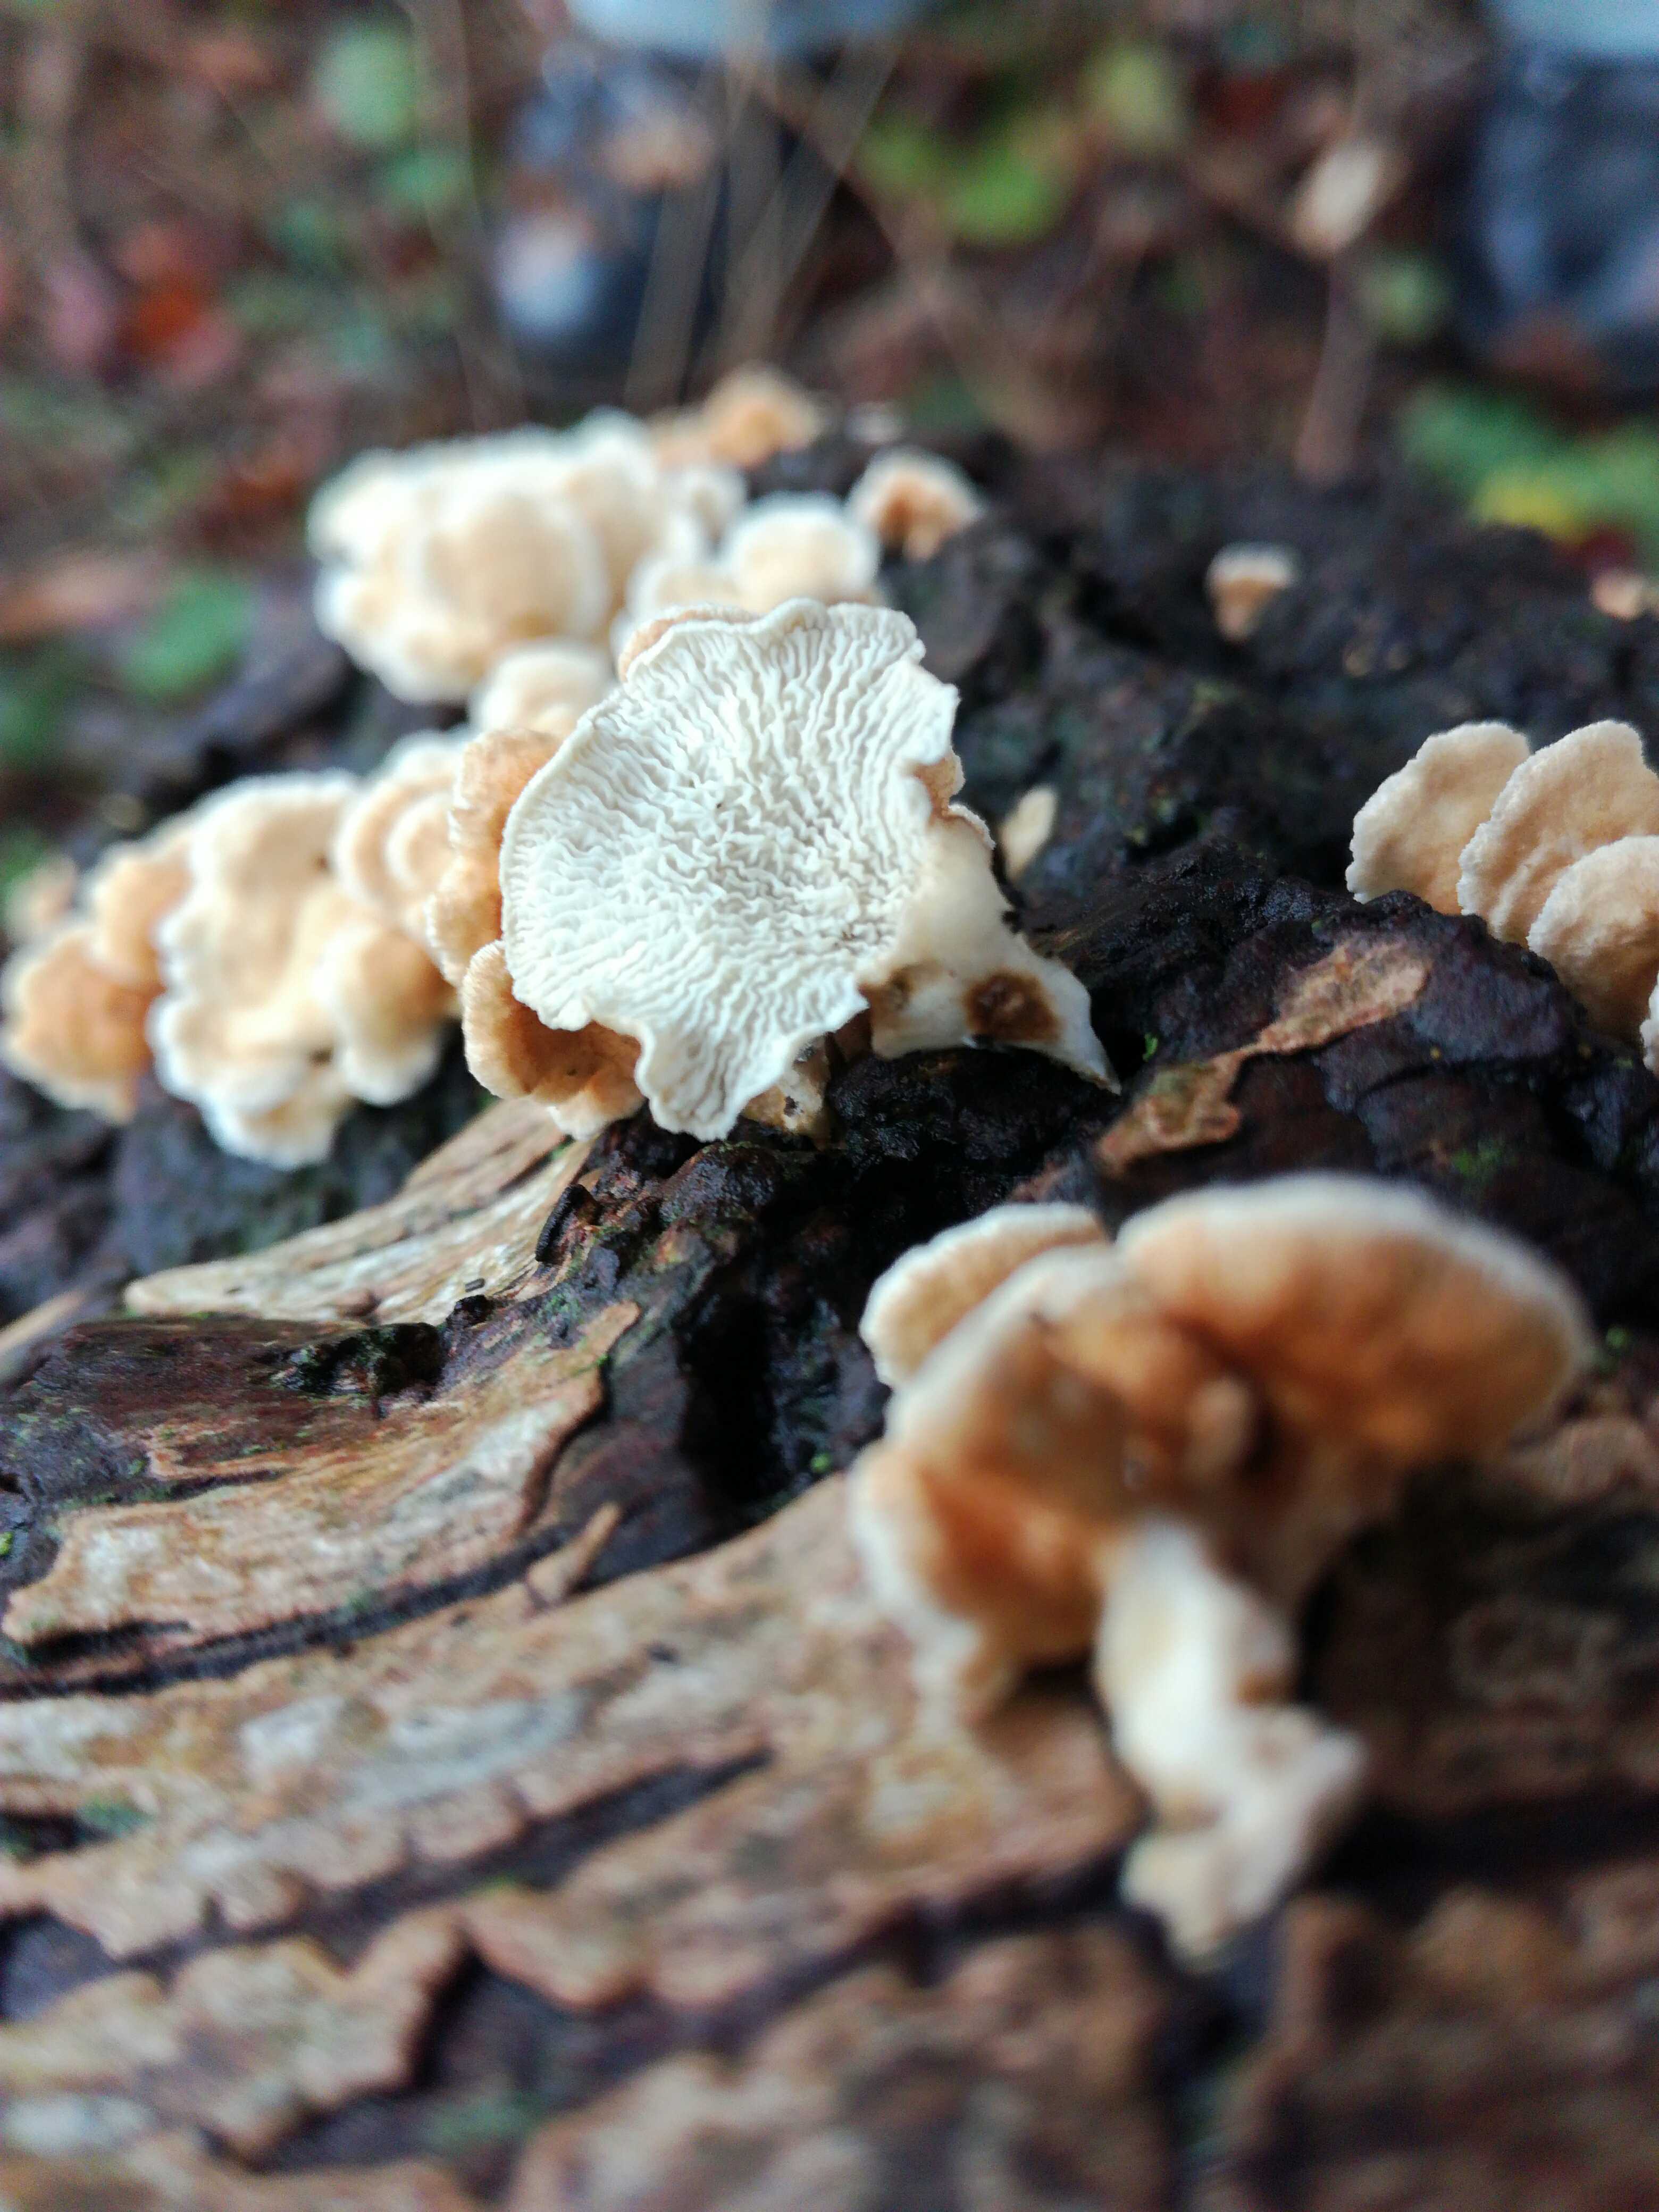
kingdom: Fungi
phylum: Basidiomycota
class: Agaricomycetes
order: Amylocorticiales
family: Amylocorticiaceae
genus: Plicaturopsis
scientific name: Plicaturopsis crispa
